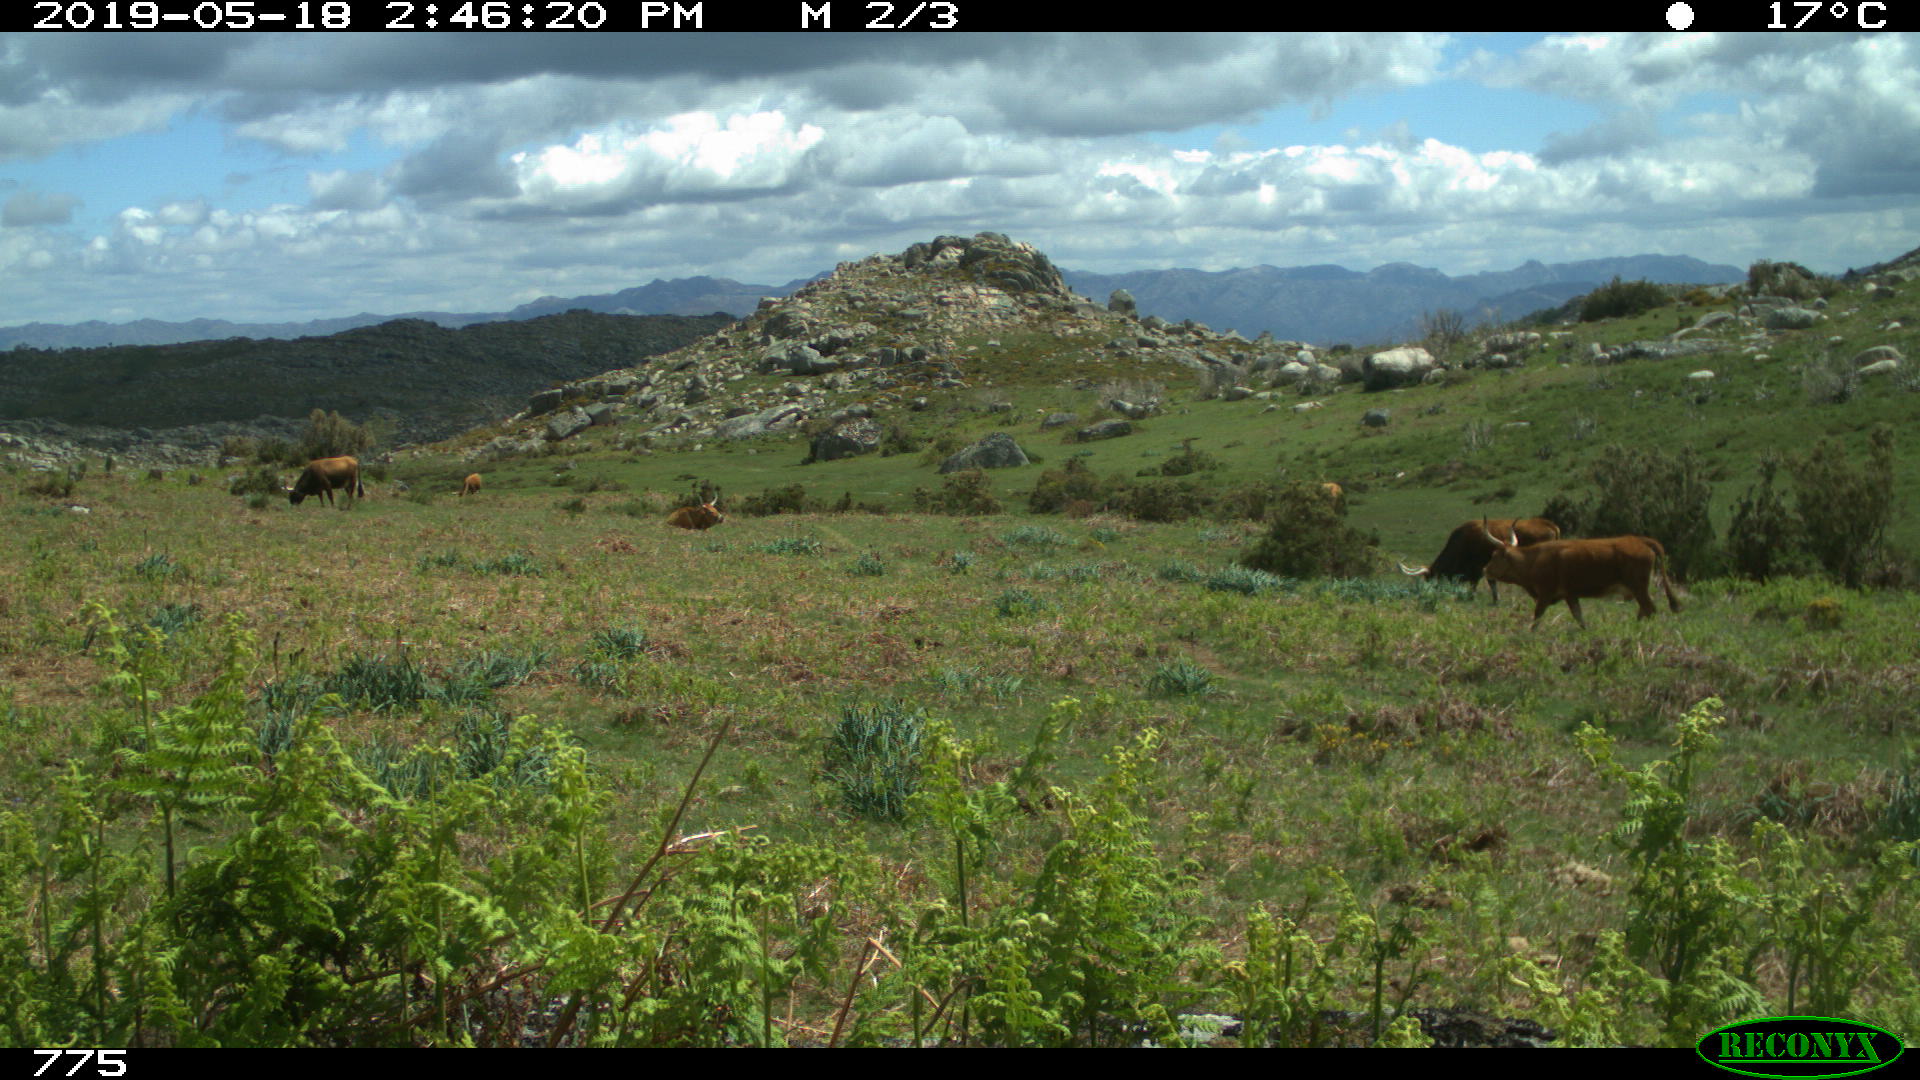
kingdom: Animalia
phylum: Chordata
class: Mammalia
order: Artiodactyla
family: Bovidae
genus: Bos
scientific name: Bos taurus
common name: Domesticated cattle
